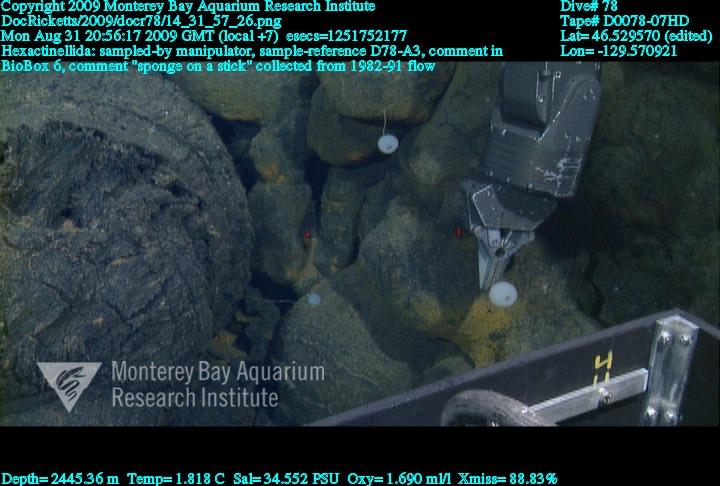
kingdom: Animalia
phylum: Porifera
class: Hexactinellida
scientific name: Hexactinellida
